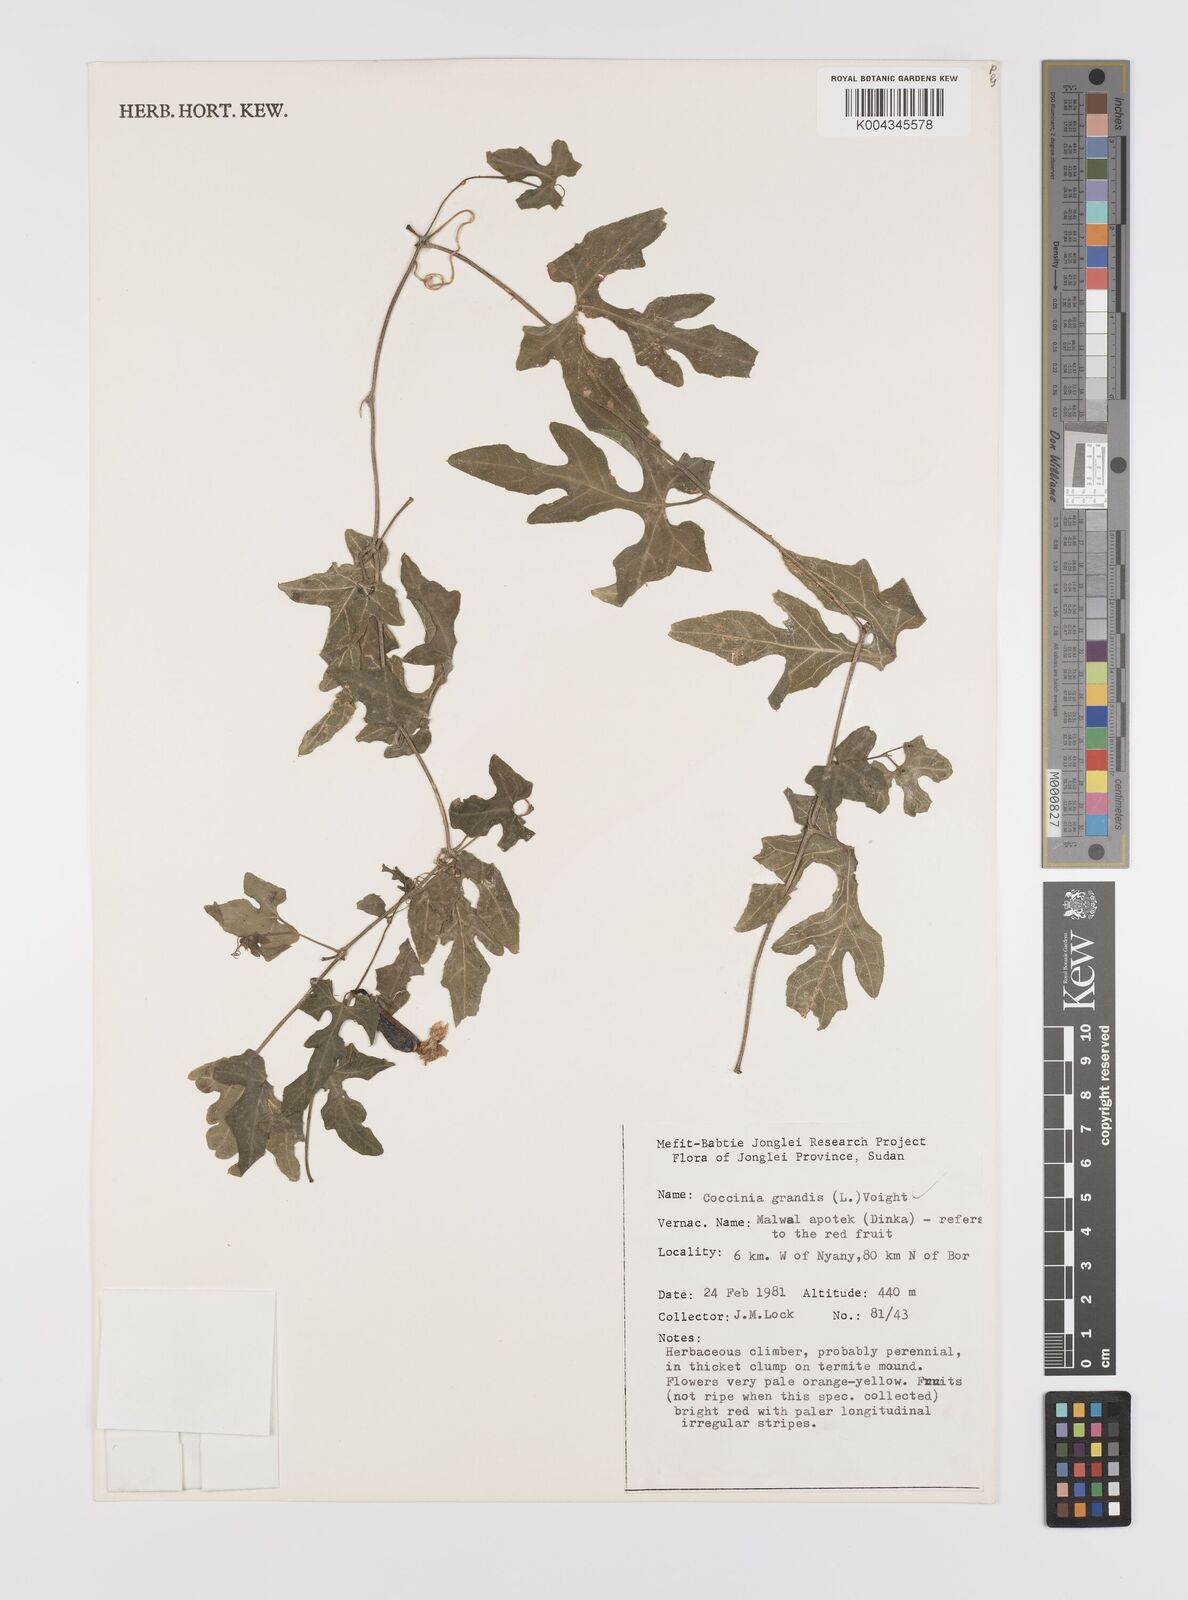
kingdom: Plantae
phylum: Tracheophyta
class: Magnoliopsida
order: Cucurbitales
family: Cucurbitaceae
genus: Coccinia
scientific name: Coccinia grandis
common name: Ivy gourd
